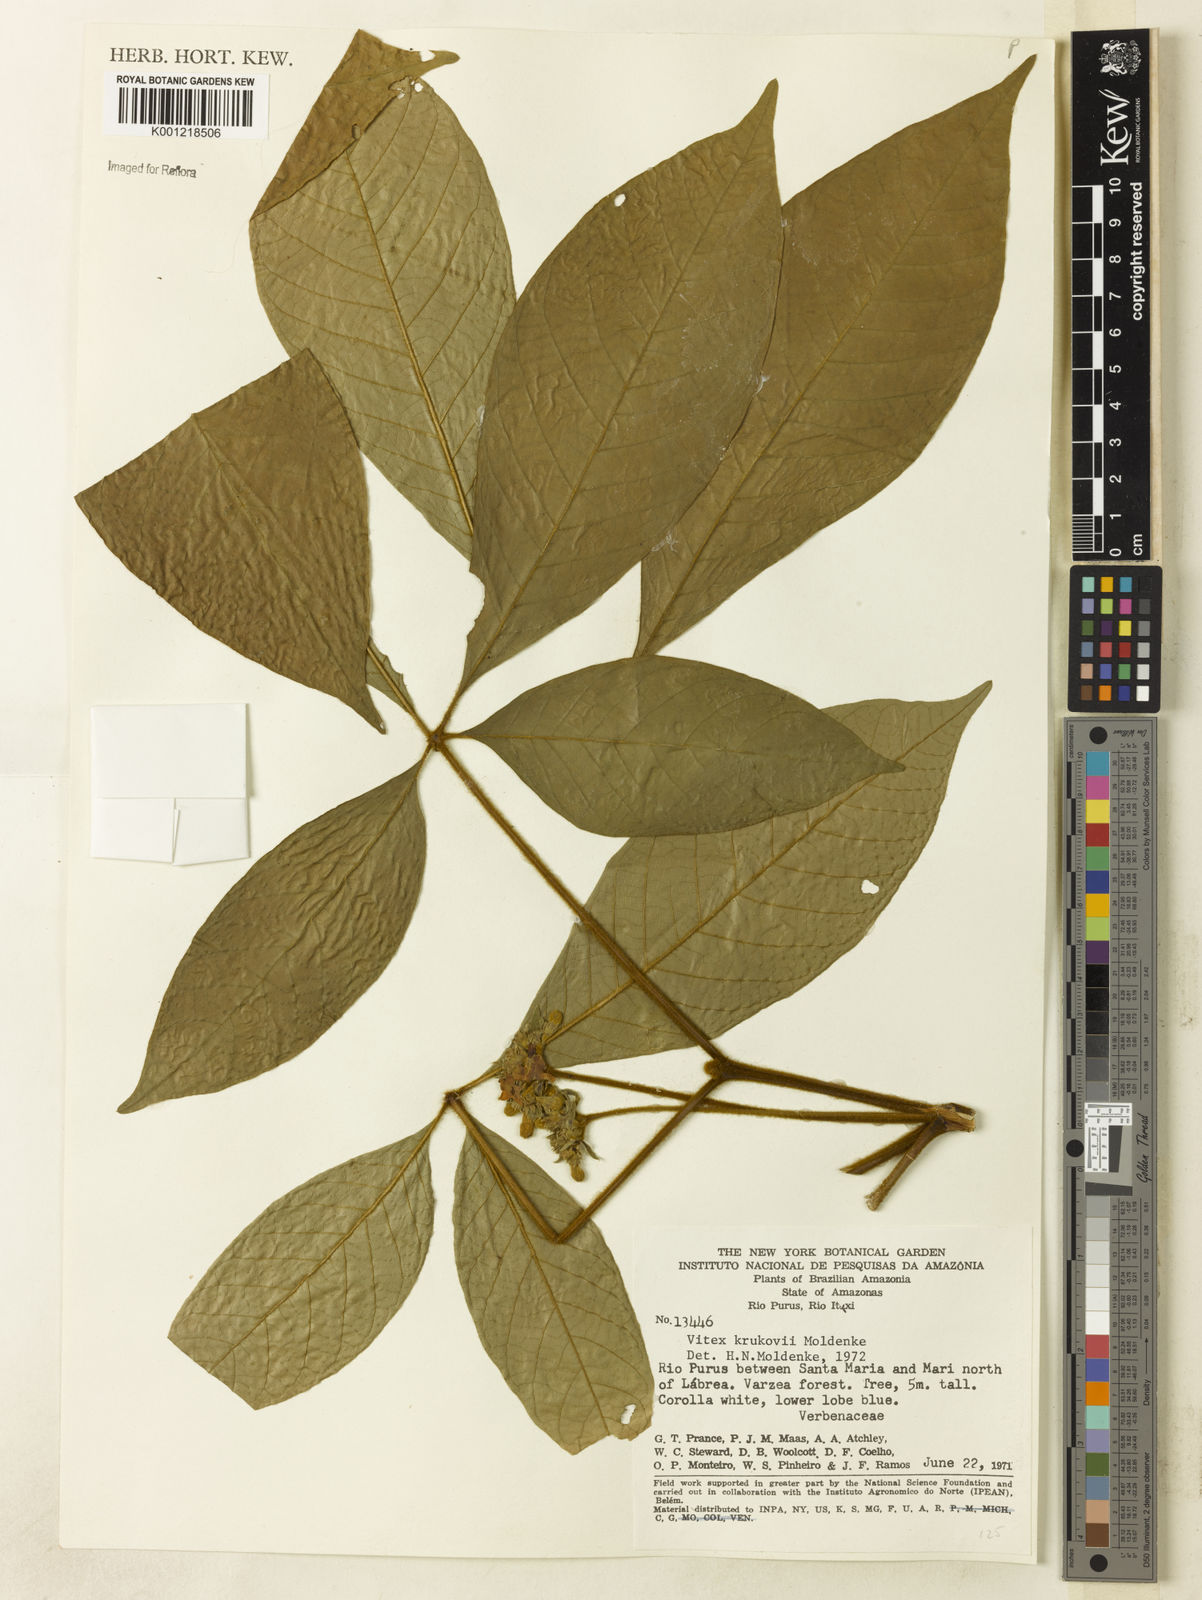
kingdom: Plantae
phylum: Tracheophyta
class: Magnoliopsida
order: Lamiales
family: Lamiaceae
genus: Vitex
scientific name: Vitex krukovii
